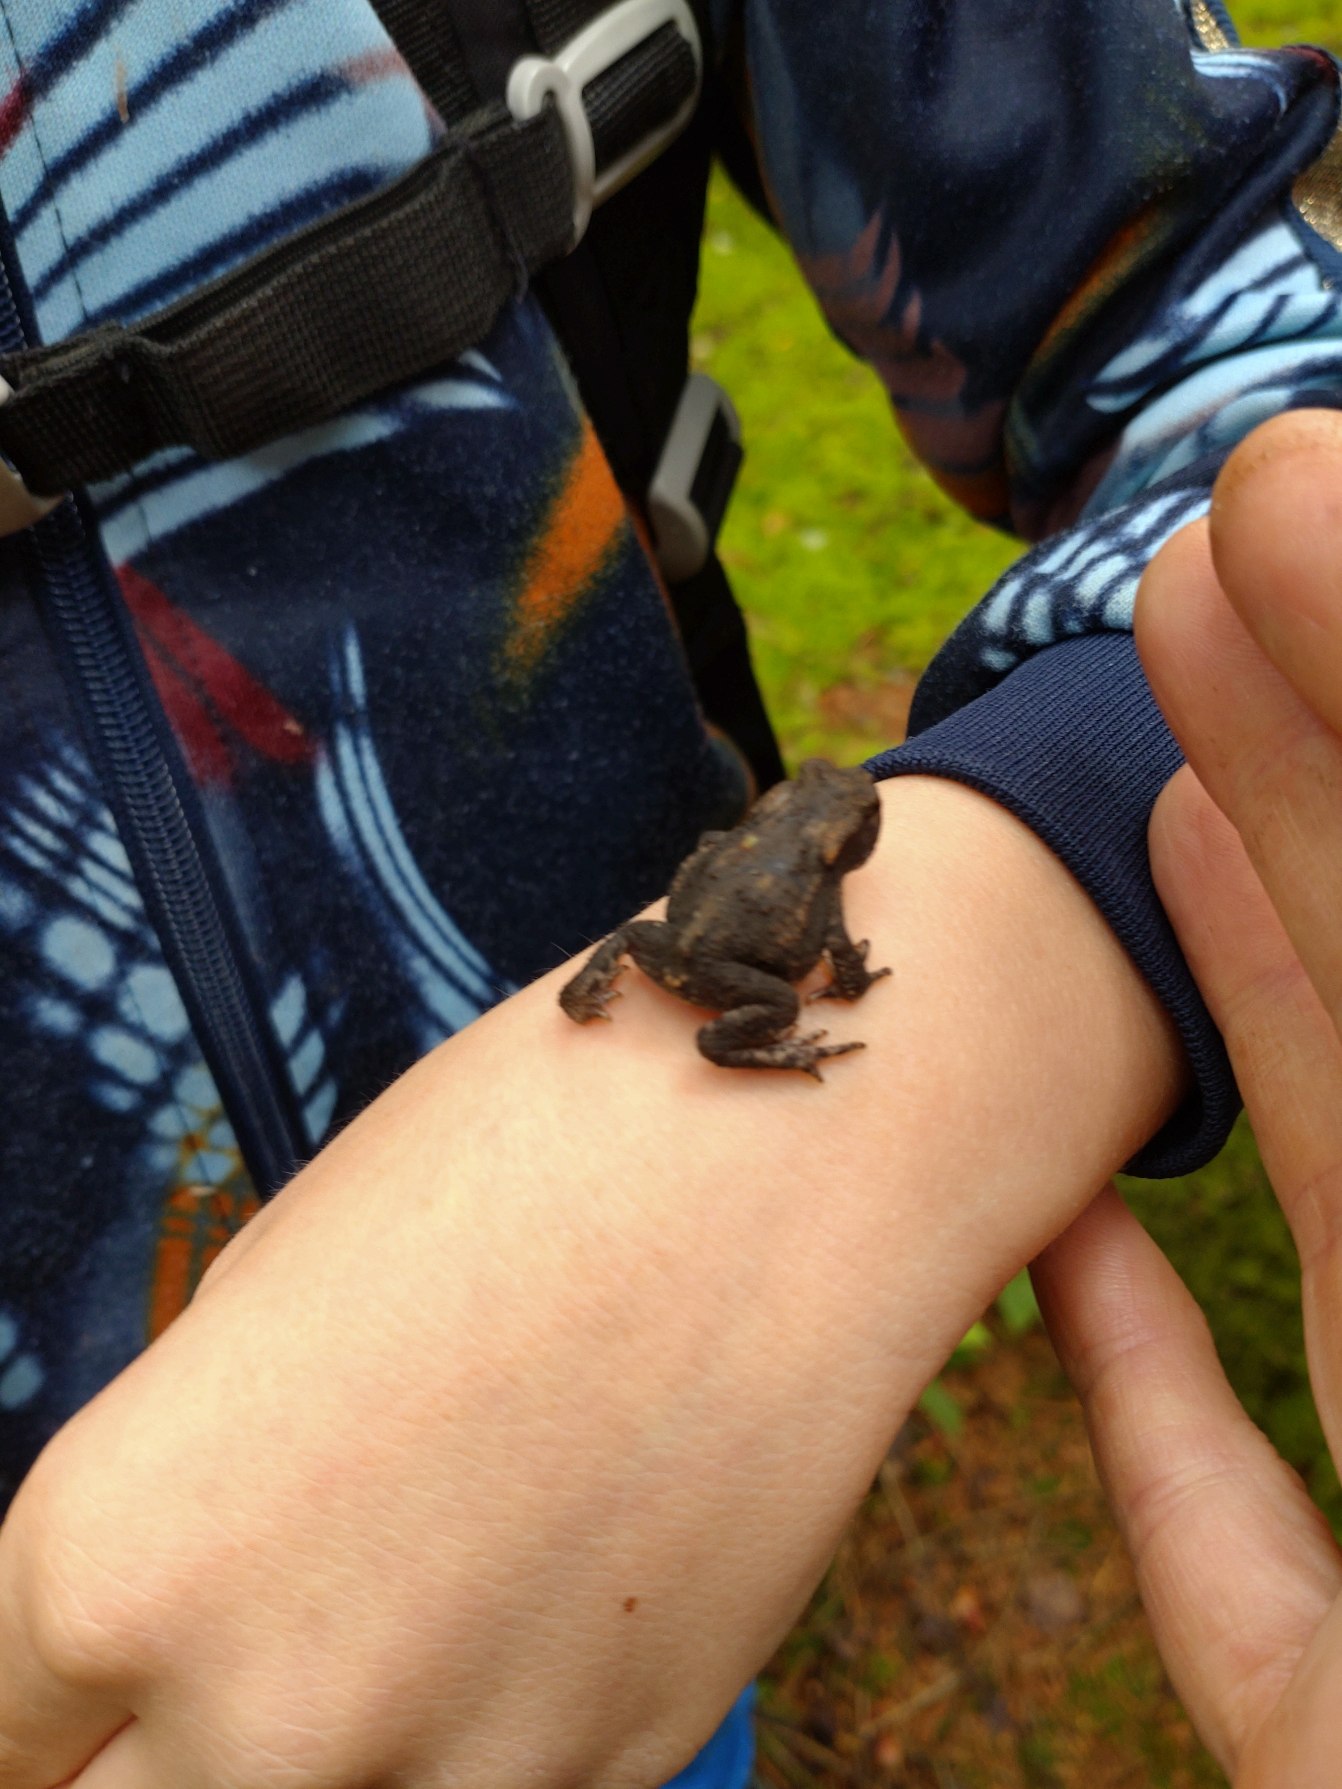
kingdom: Animalia
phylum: Chordata
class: Amphibia
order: Anura
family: Bufonidae
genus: Bufo
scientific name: Bufo bufo
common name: Skrubtudse
